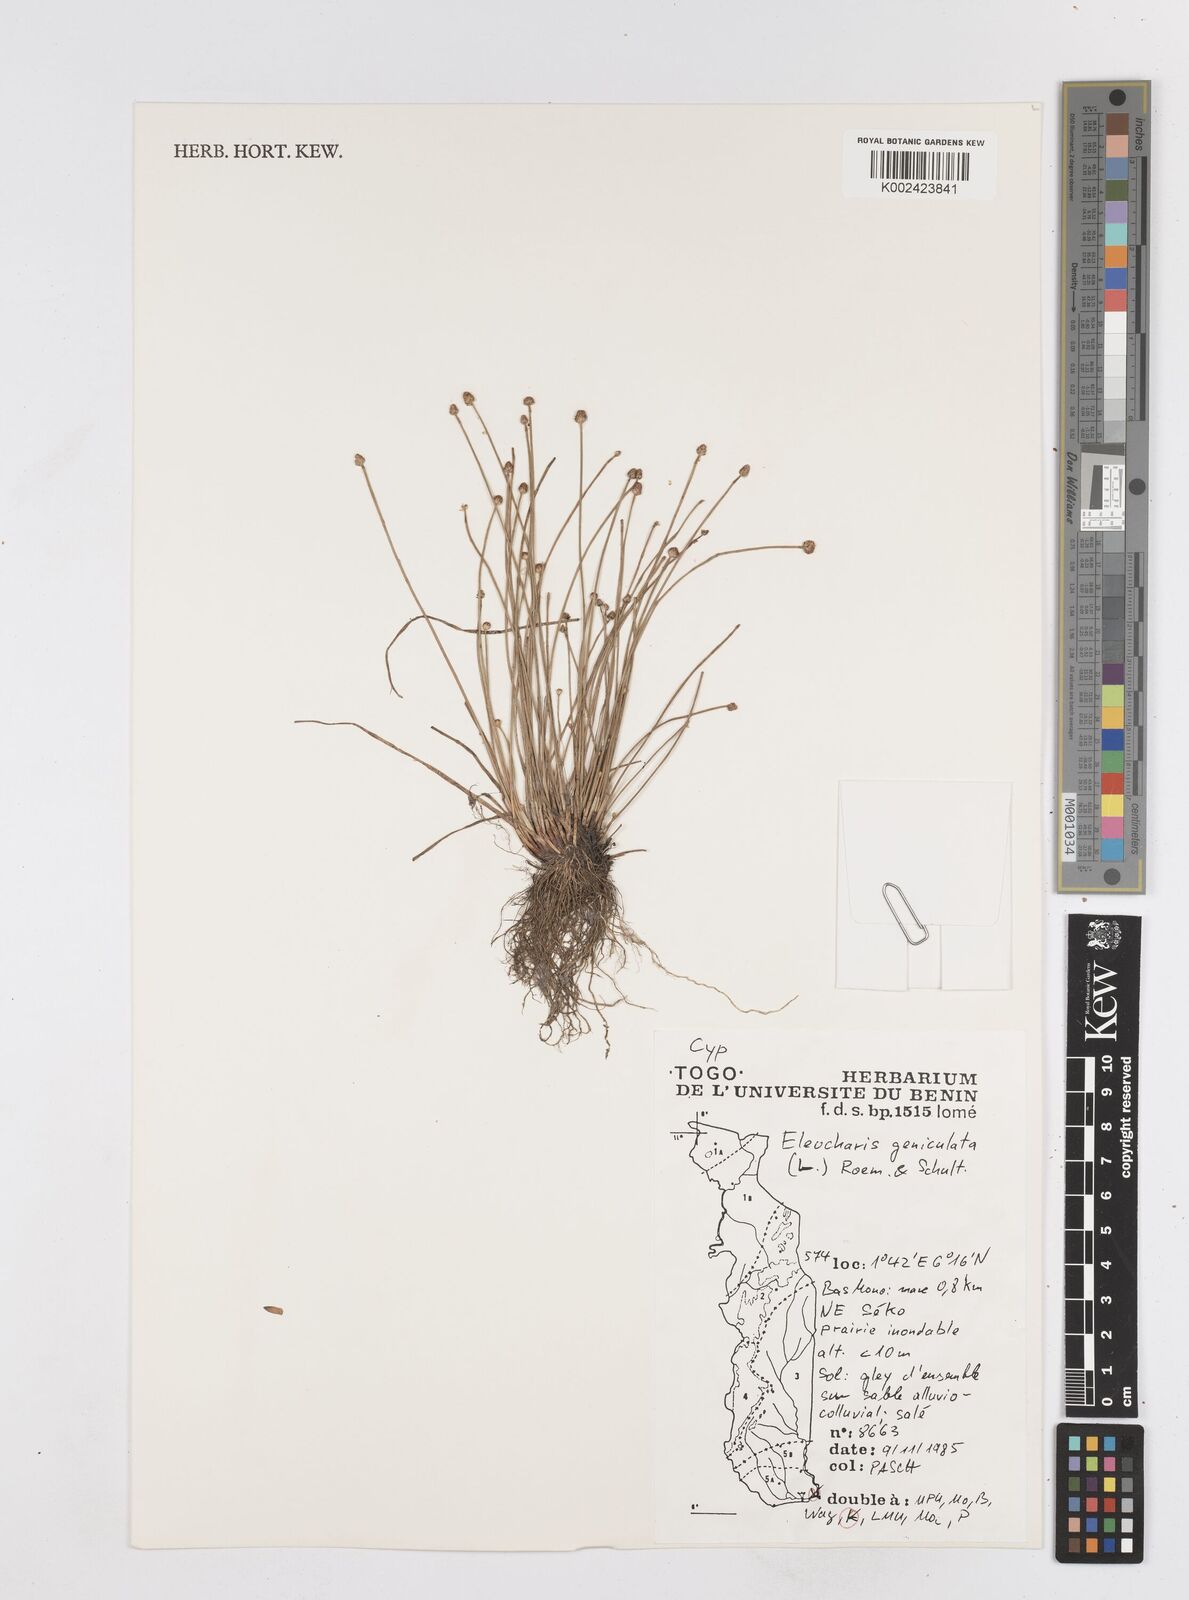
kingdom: Plantae
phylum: Tracheophyta
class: Liliopsida
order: Poales
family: Cyperaceae
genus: Eleocharis
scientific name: Eleocharis geniculata
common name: Canada spikesedge
